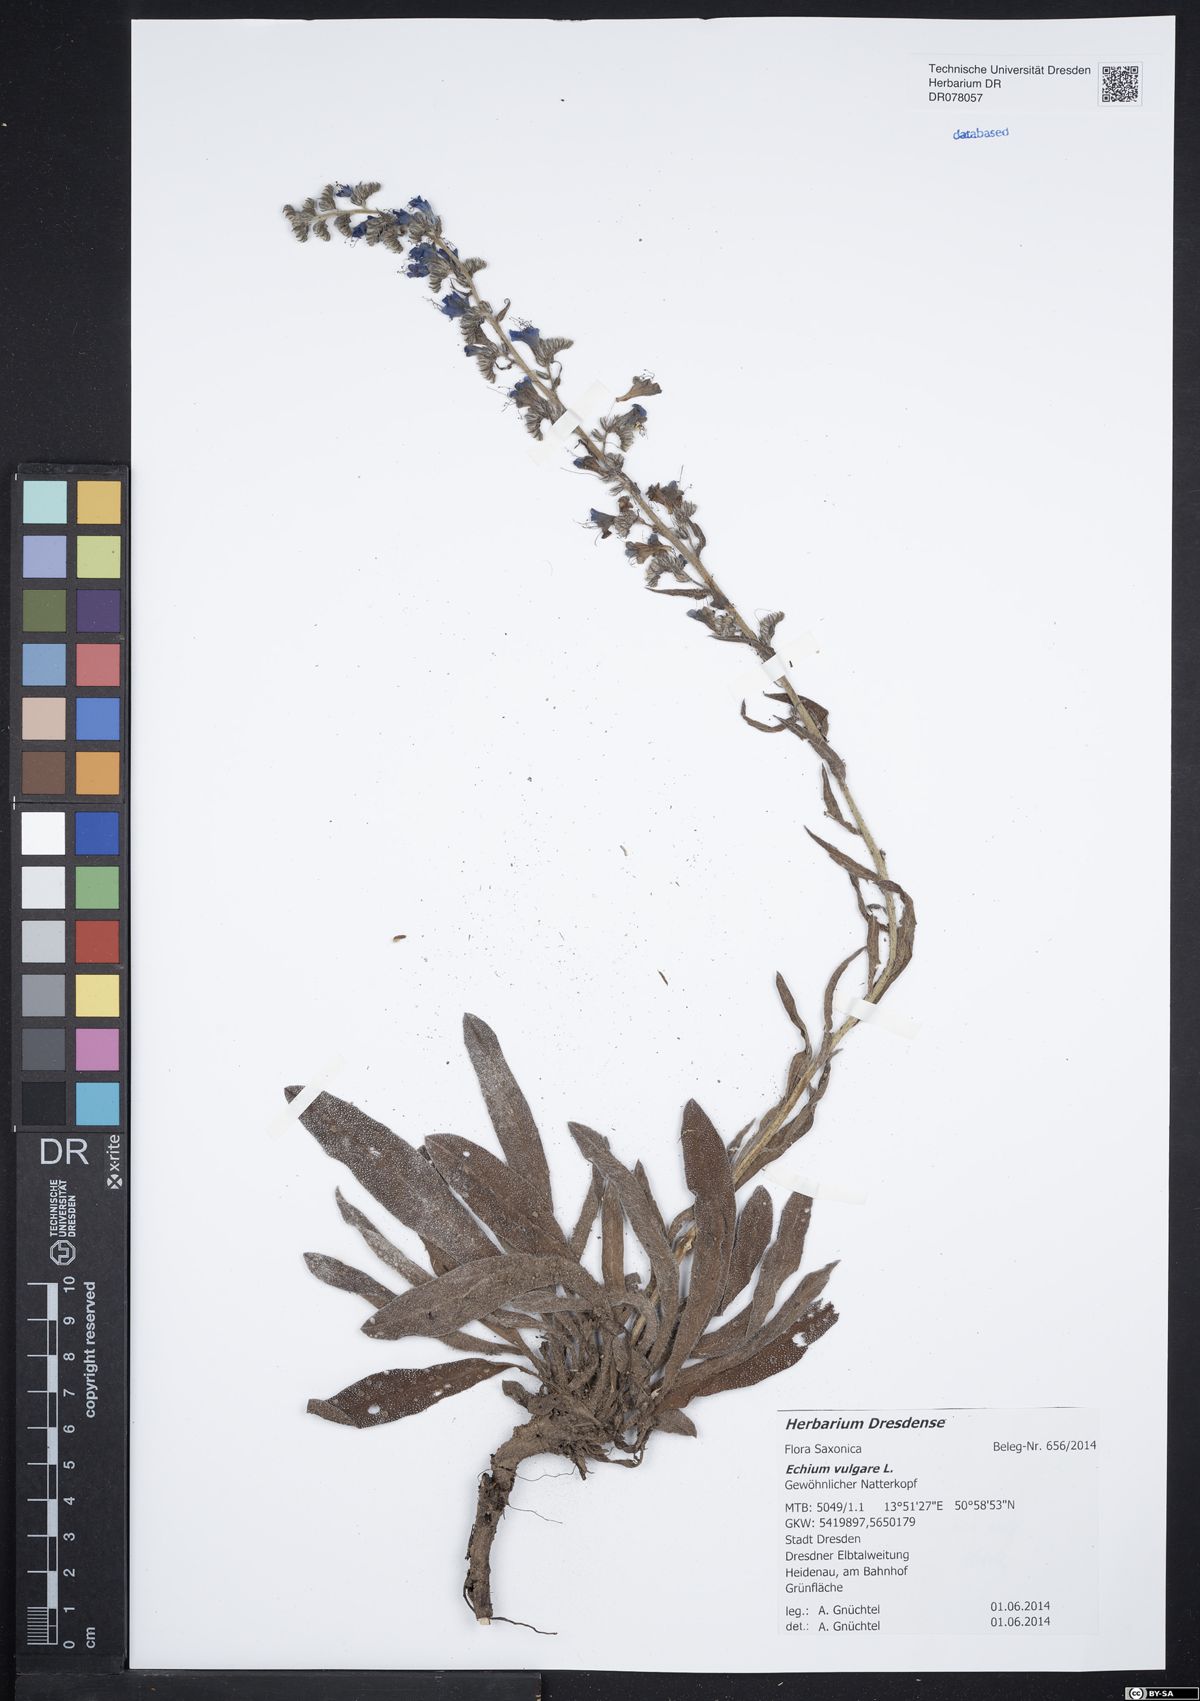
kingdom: Plantae
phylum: Tracheophyta
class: Magnoliopsida
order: Boraginales
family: Boraginaceae
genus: Echium
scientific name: Echium vulgare
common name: Common viper's bugloss
